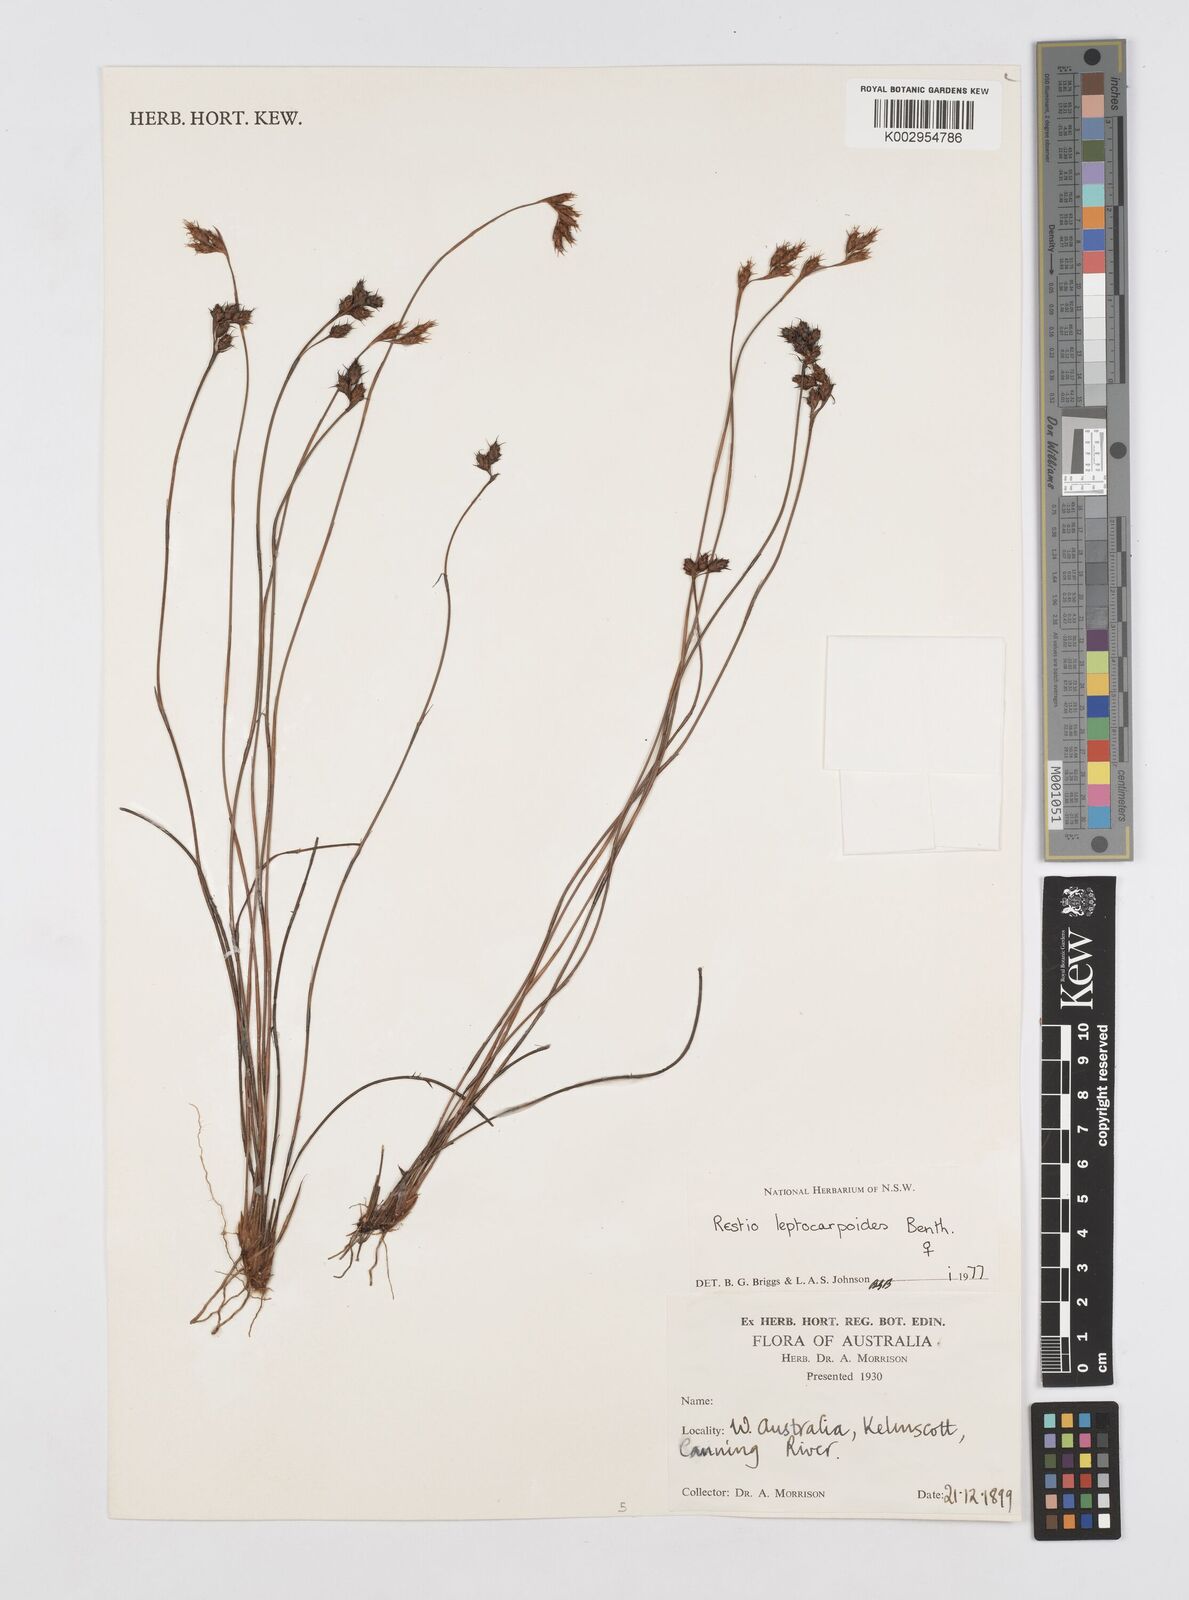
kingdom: Plantae
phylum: Tracheophyta
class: Liliopsida
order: Poales
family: Restionaceae
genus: Cytogonidium
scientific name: Cytogonidium leptocarpoides
